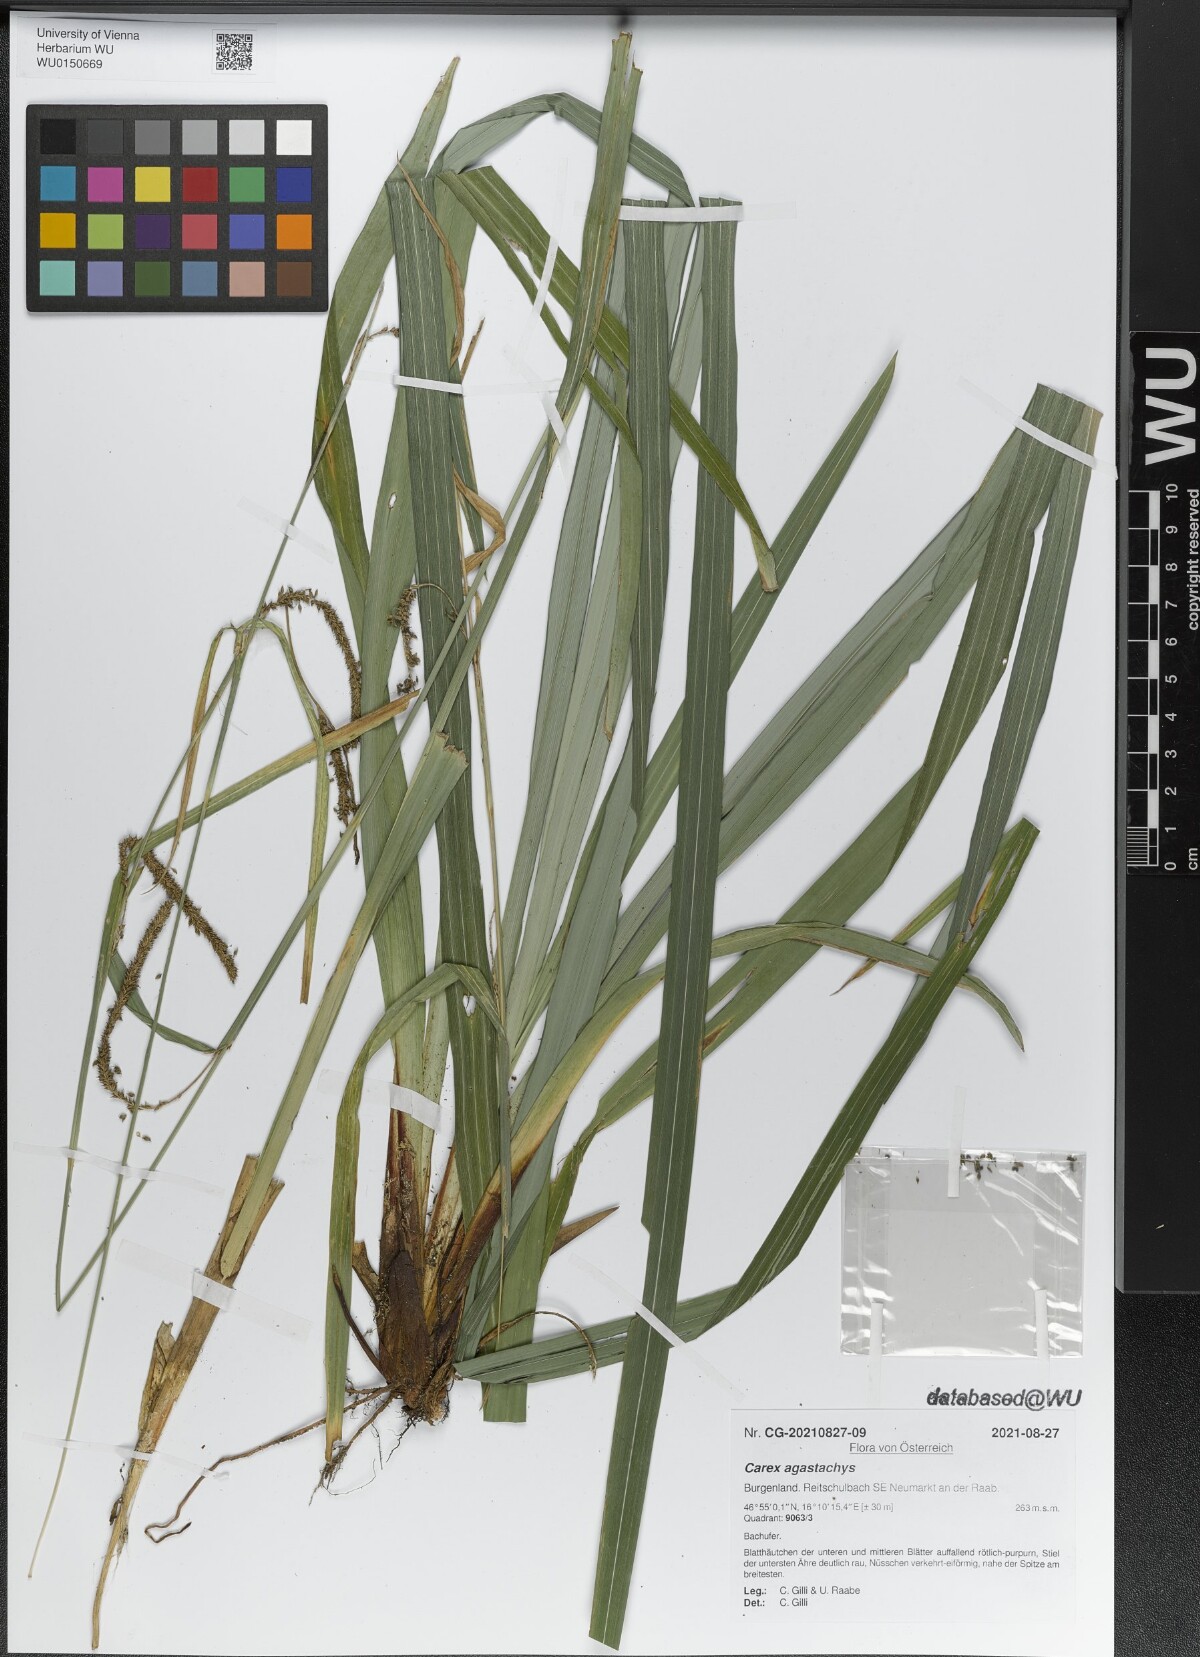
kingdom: Plantae
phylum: Tracheophyta
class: Liliopsida
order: Poales
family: Cyperaceae
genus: Carex
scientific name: Carex agastachys
